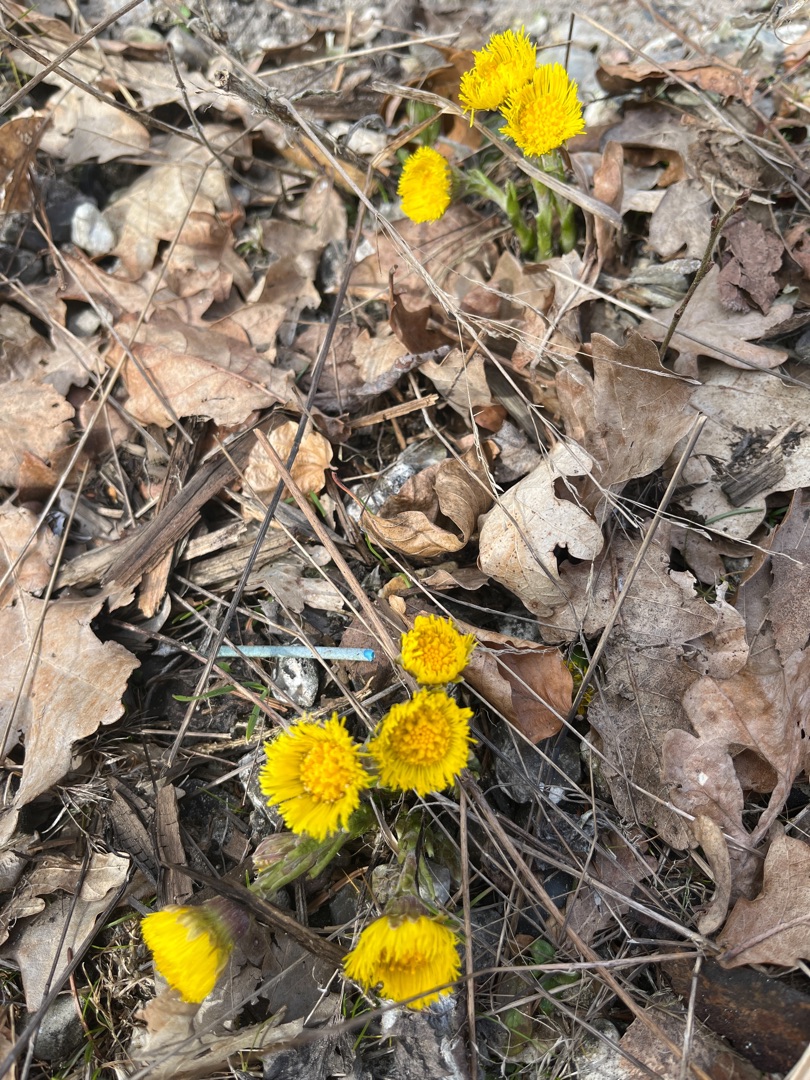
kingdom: Plantae
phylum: Tracheophyta
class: Magnoliopsida
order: Asterales
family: Asteraceae
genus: Tussilago
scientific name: Tussilago farfara
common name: Følfod
